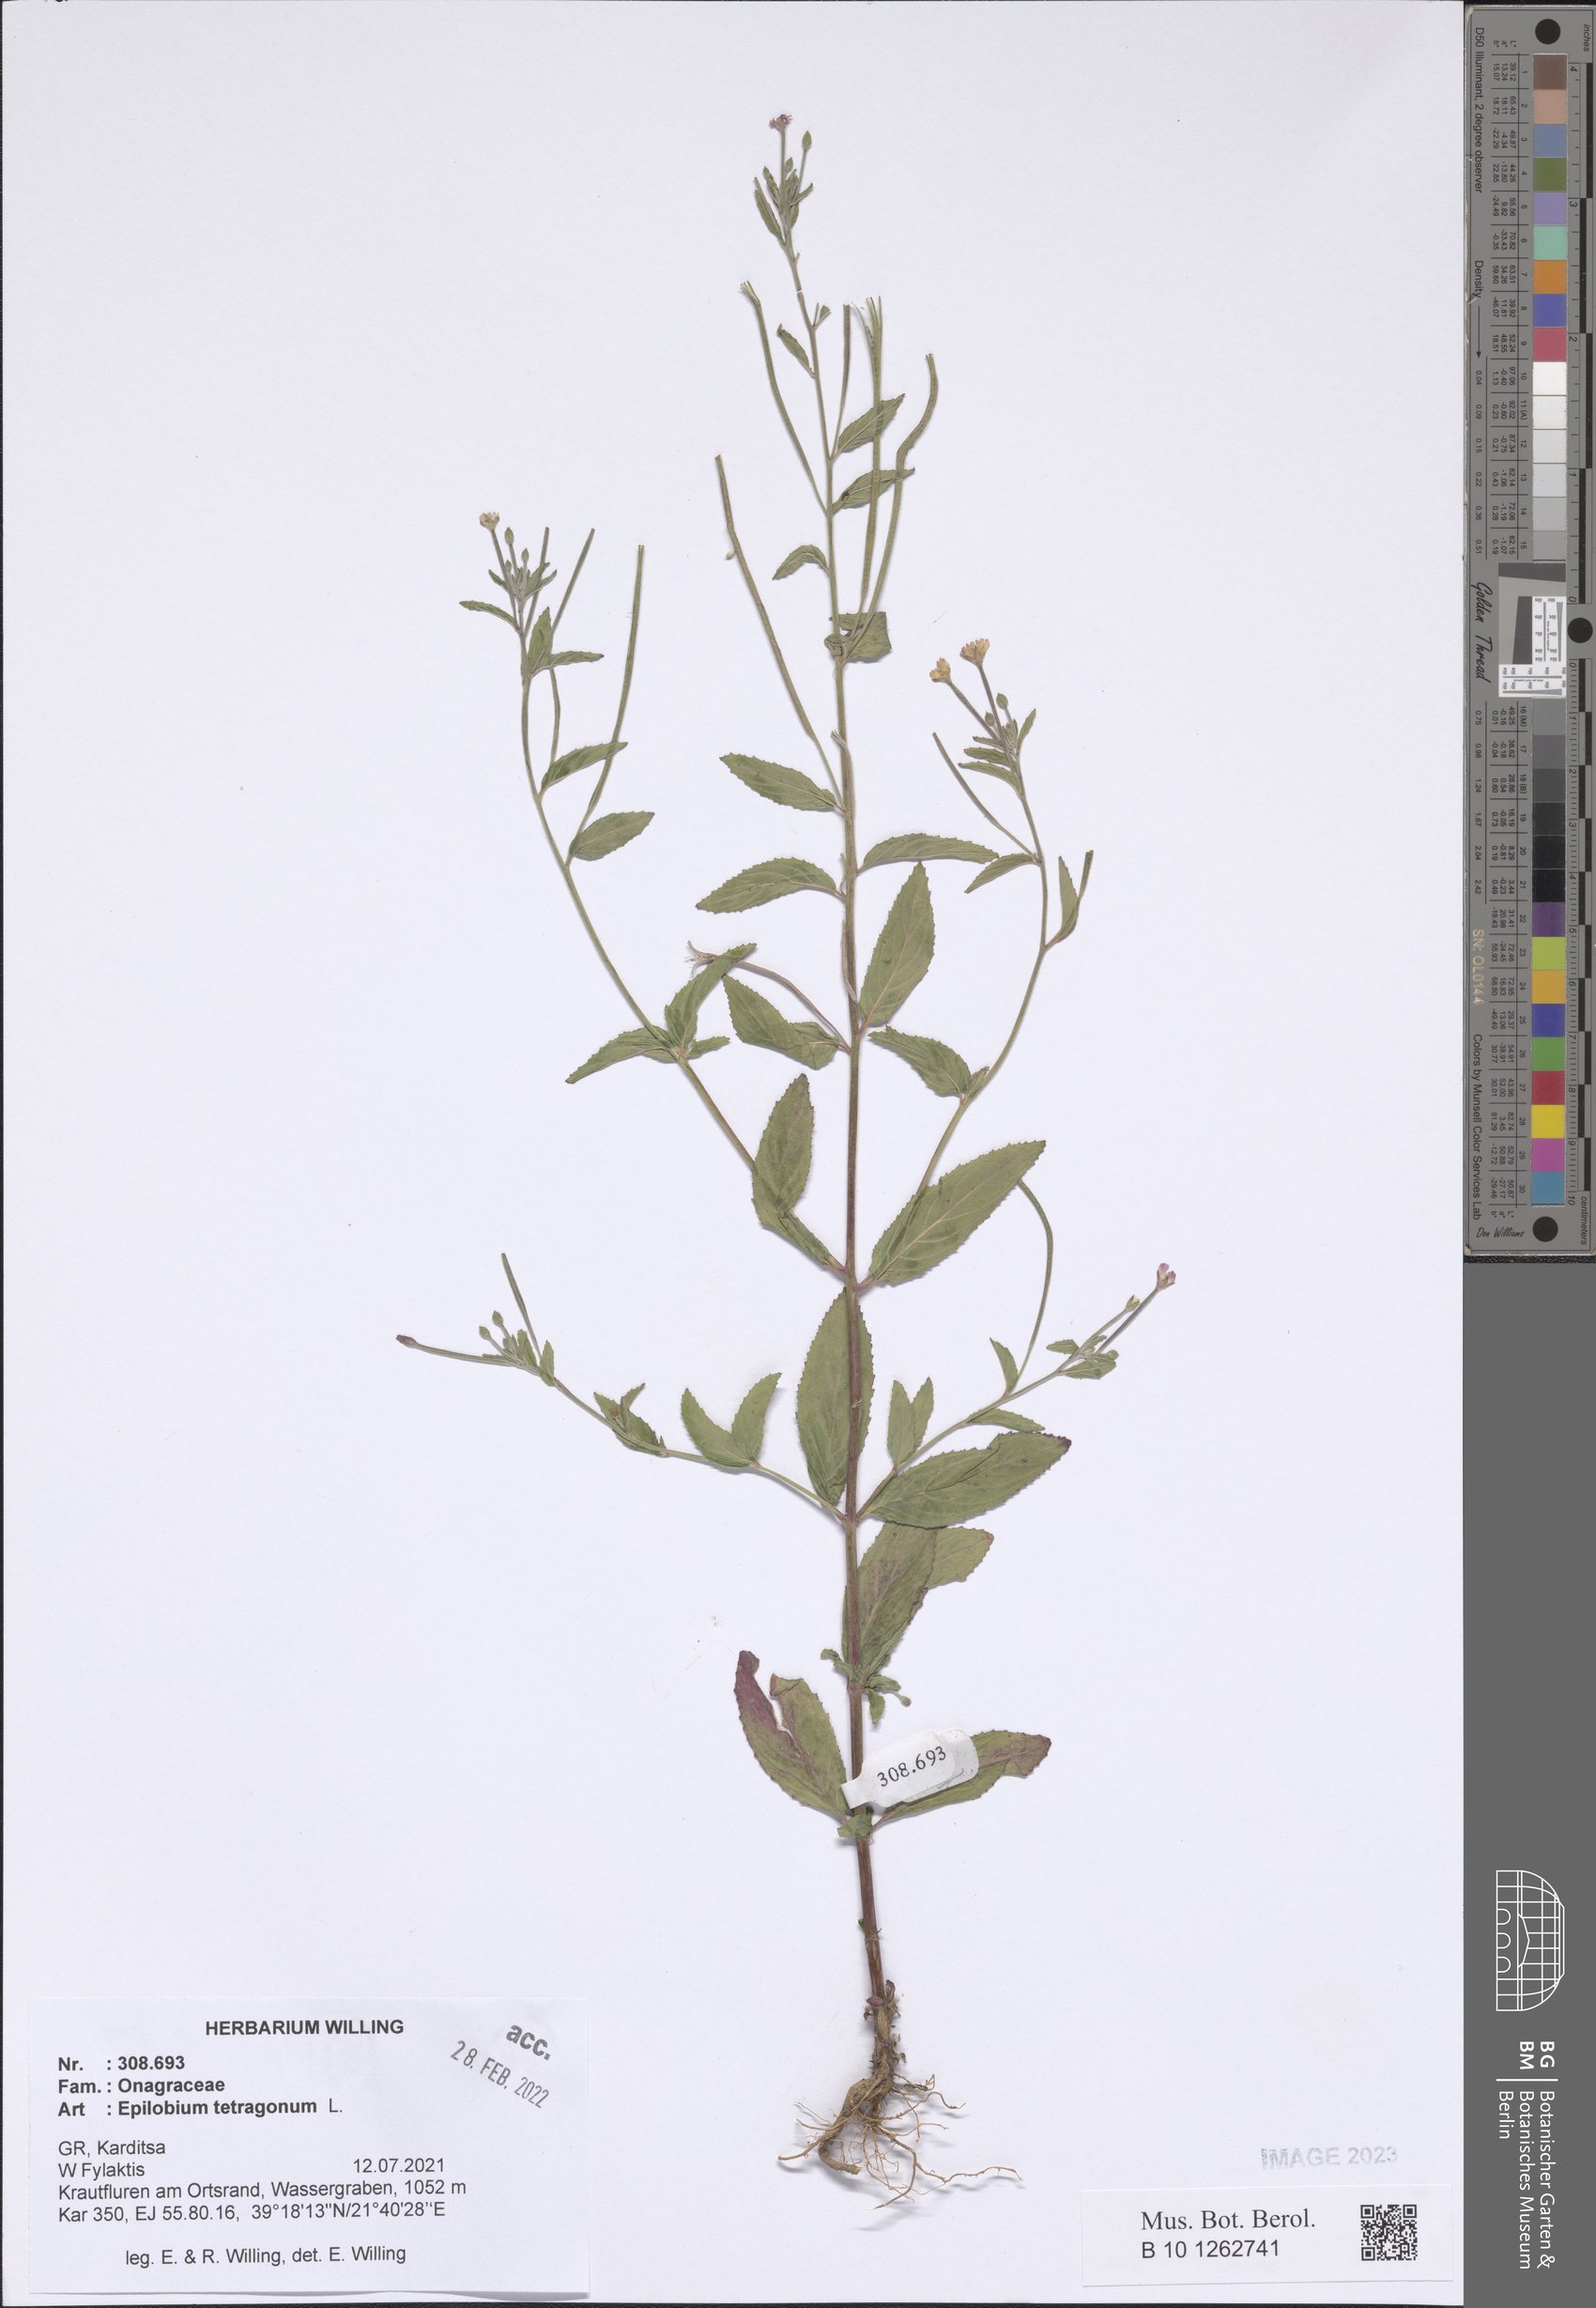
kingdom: Plantae
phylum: Tracheophyta
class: Magnoliopsida
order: Myrtales
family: Onagraceae
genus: Epilobium
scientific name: Epilobium tetragonum
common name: Square-stemmed willowherb
